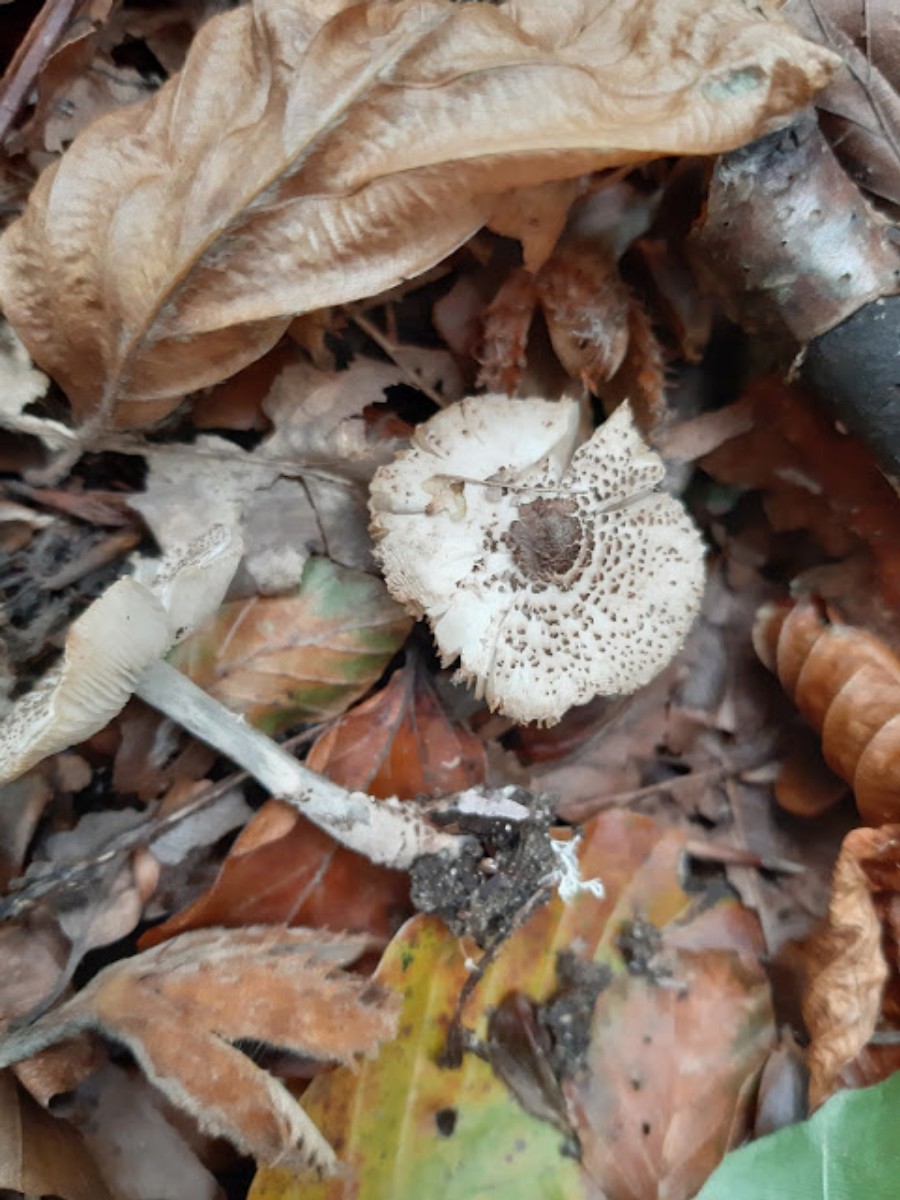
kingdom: Fungi
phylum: Basidiomycota
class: Agaricomycetes
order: Agaricales
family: Agaricaceae
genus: Lepiota
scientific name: Lepiota felina
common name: sortskællet parasolhat
